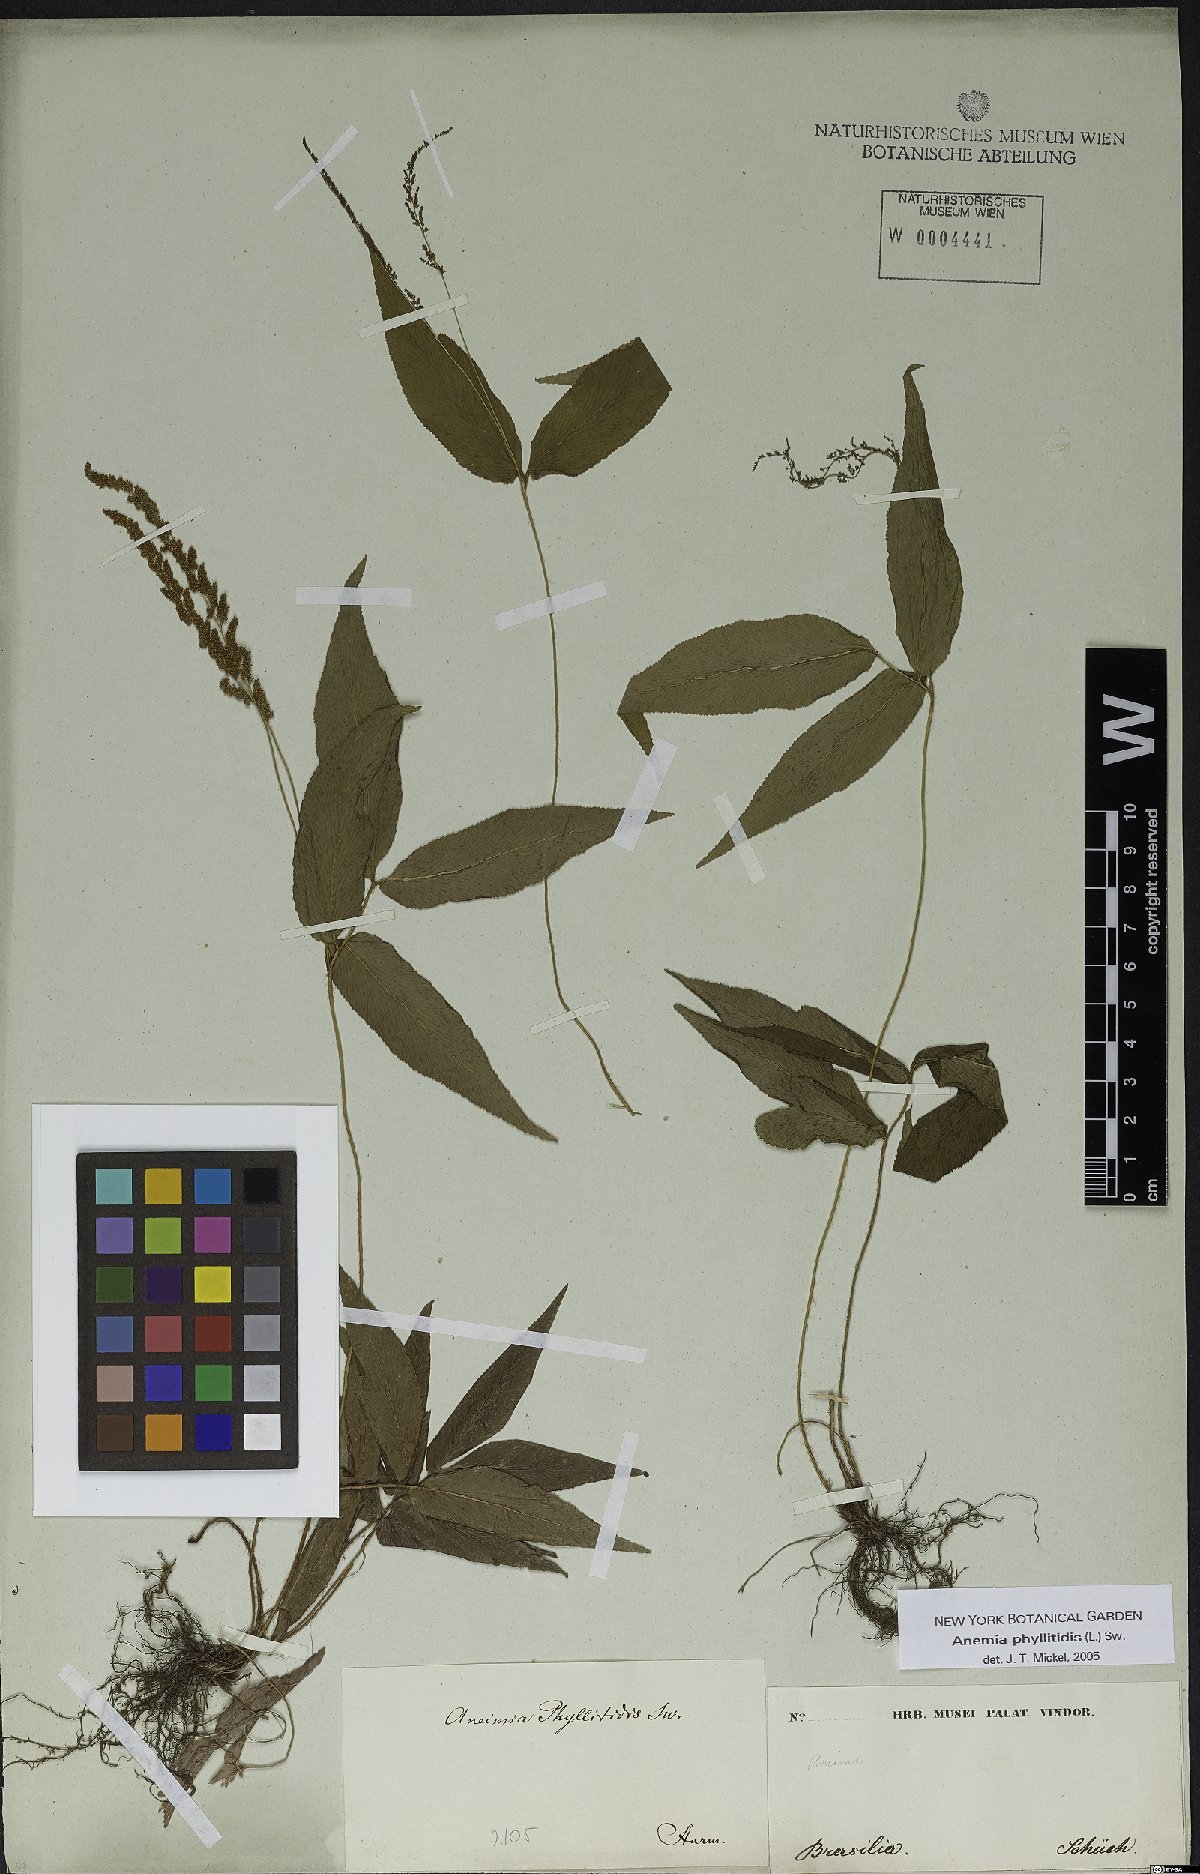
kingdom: Plantae
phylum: Tracheophyta
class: Polypodiopsida
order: Schizaeales
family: Anemiaceae
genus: Anemia
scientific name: Anemia phyllitidis
